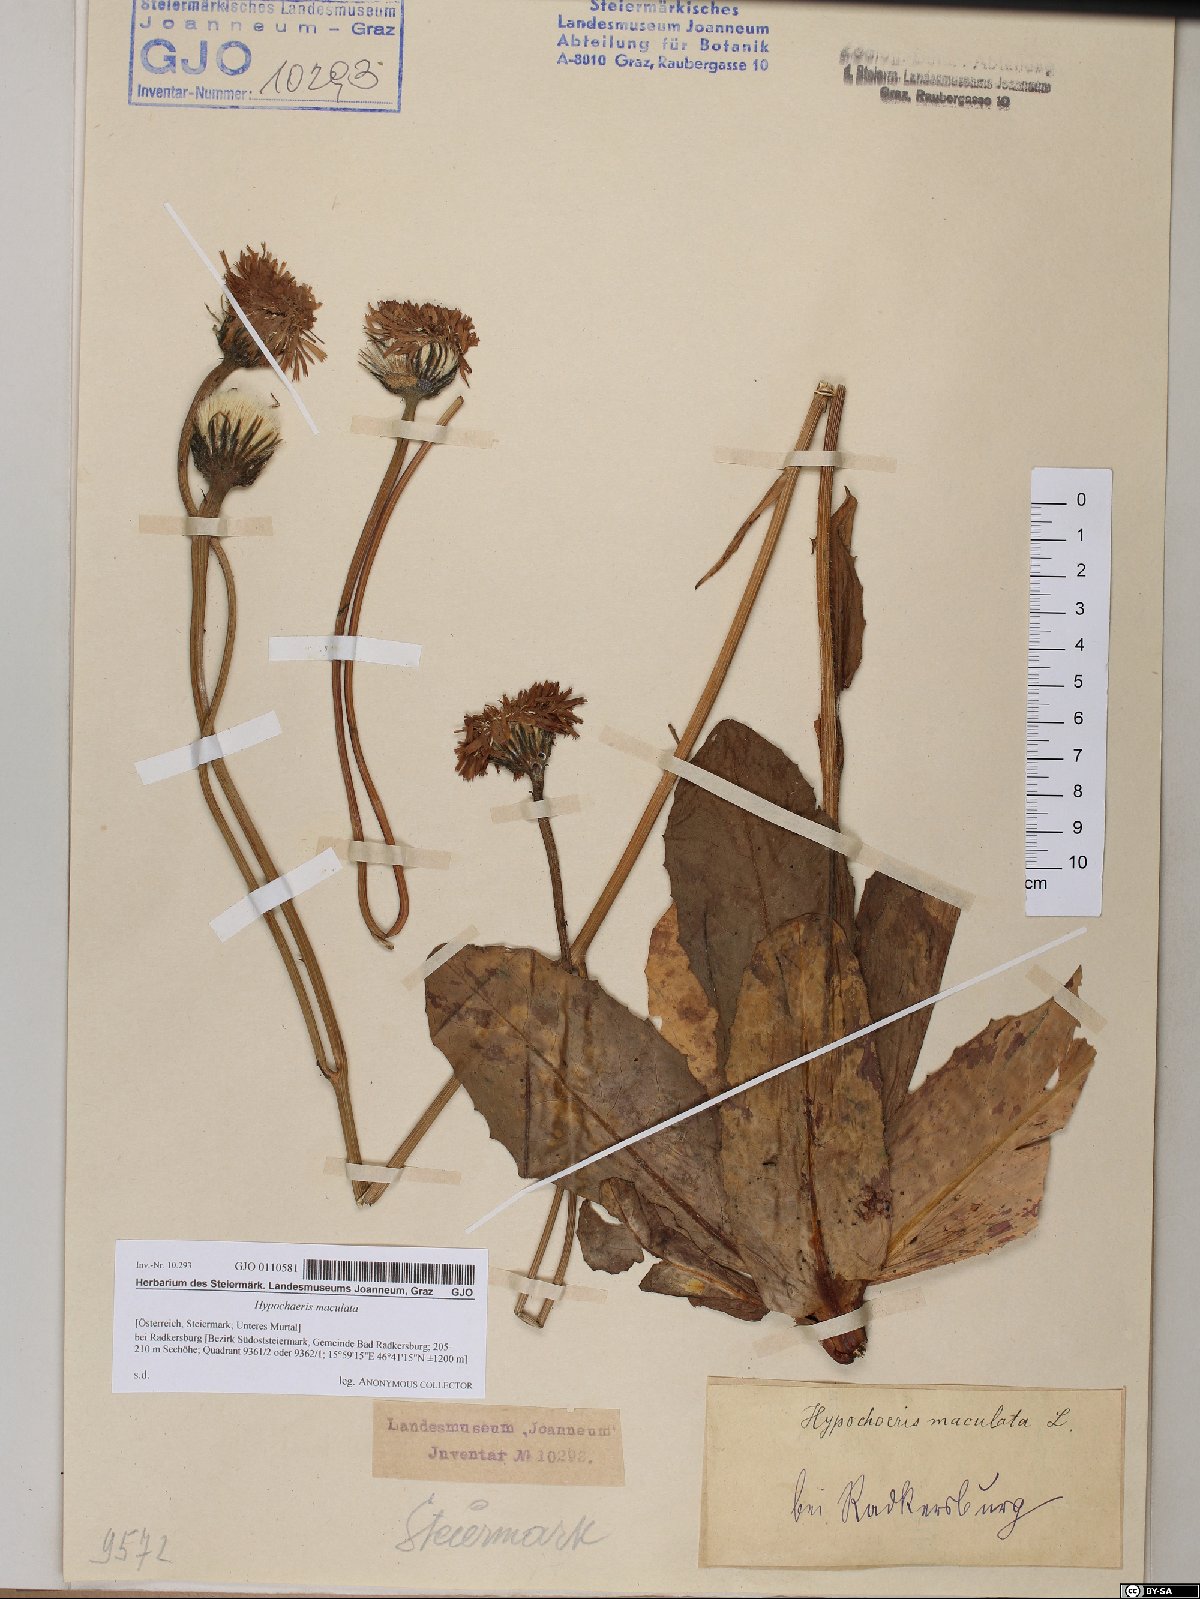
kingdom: Plantae
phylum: Tracheophyta
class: Magnoliopsida
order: Asterales
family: Asteraceae
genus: Trommsdorffia
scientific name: Trommsdorffia maculata
